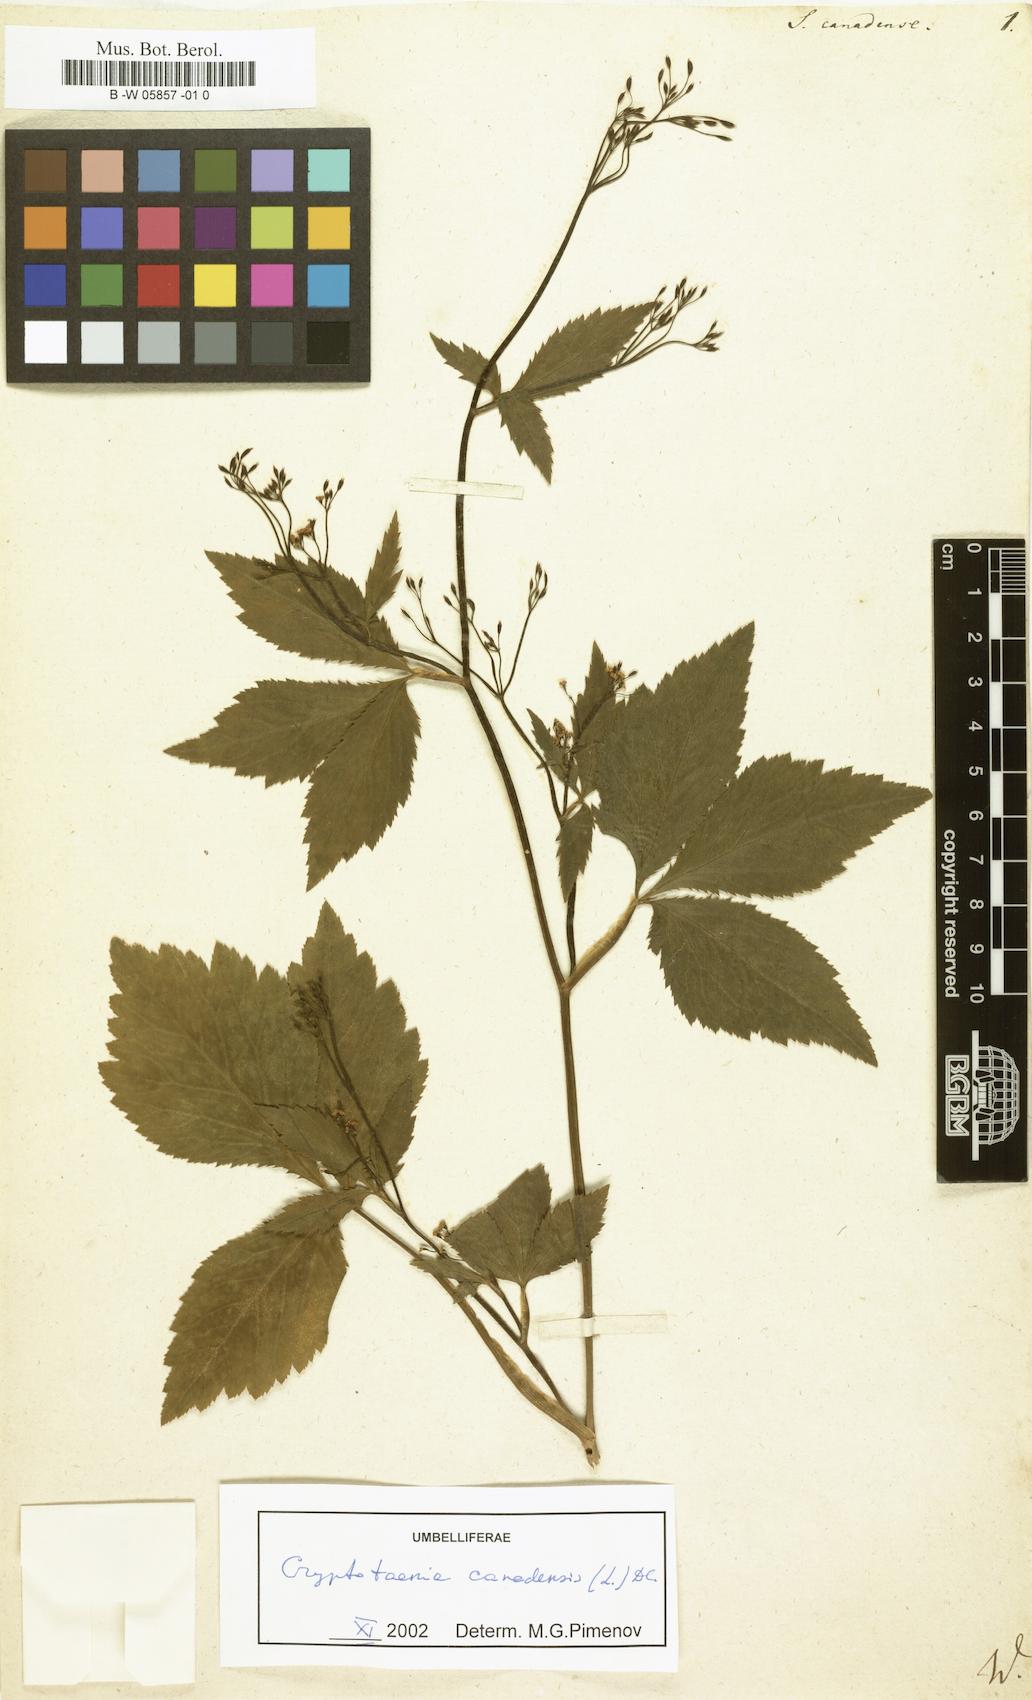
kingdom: Plantae
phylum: Tracheophyta
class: Magnoliopsida
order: Apiales
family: Apiaceae
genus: Cryptotaenia
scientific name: Cryptotaenia canadensis
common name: Honewort
